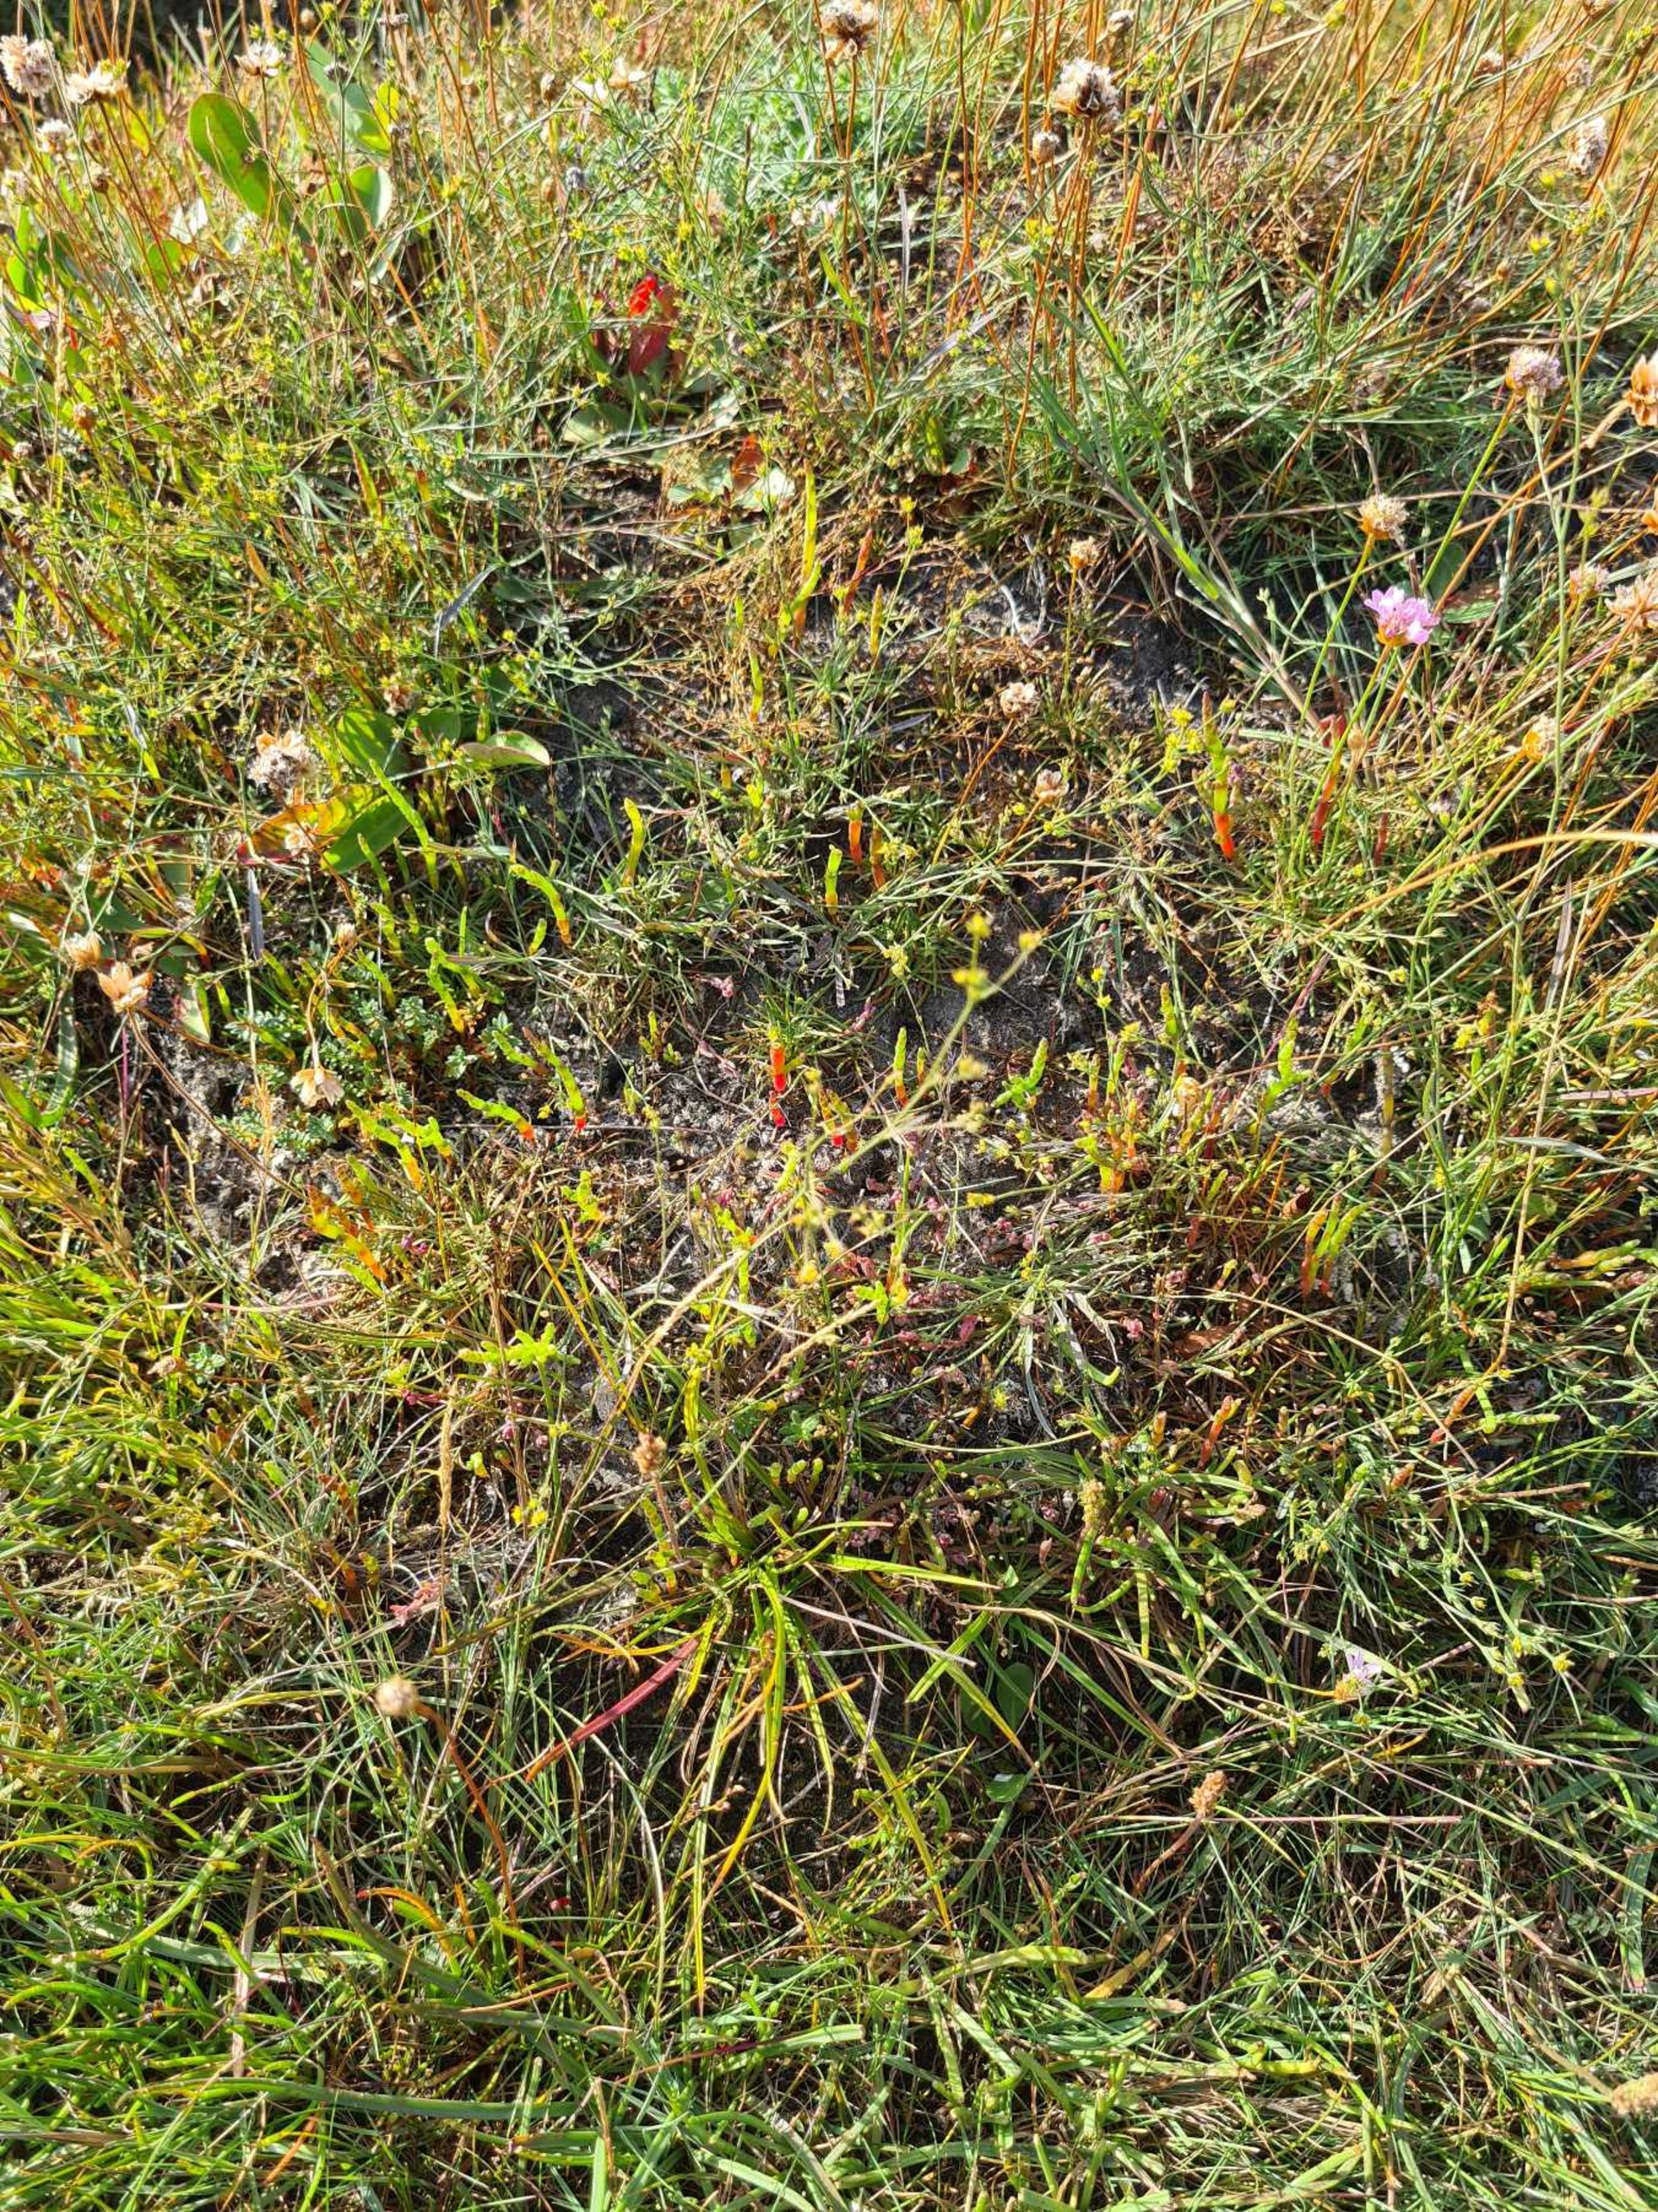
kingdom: Plantae
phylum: Tracheophyta
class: Magnoliopsida
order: Apiales
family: Apiaceae
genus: Bupleurum
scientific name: Bupleurum tenuissimum
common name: Smalbladet hareøre
